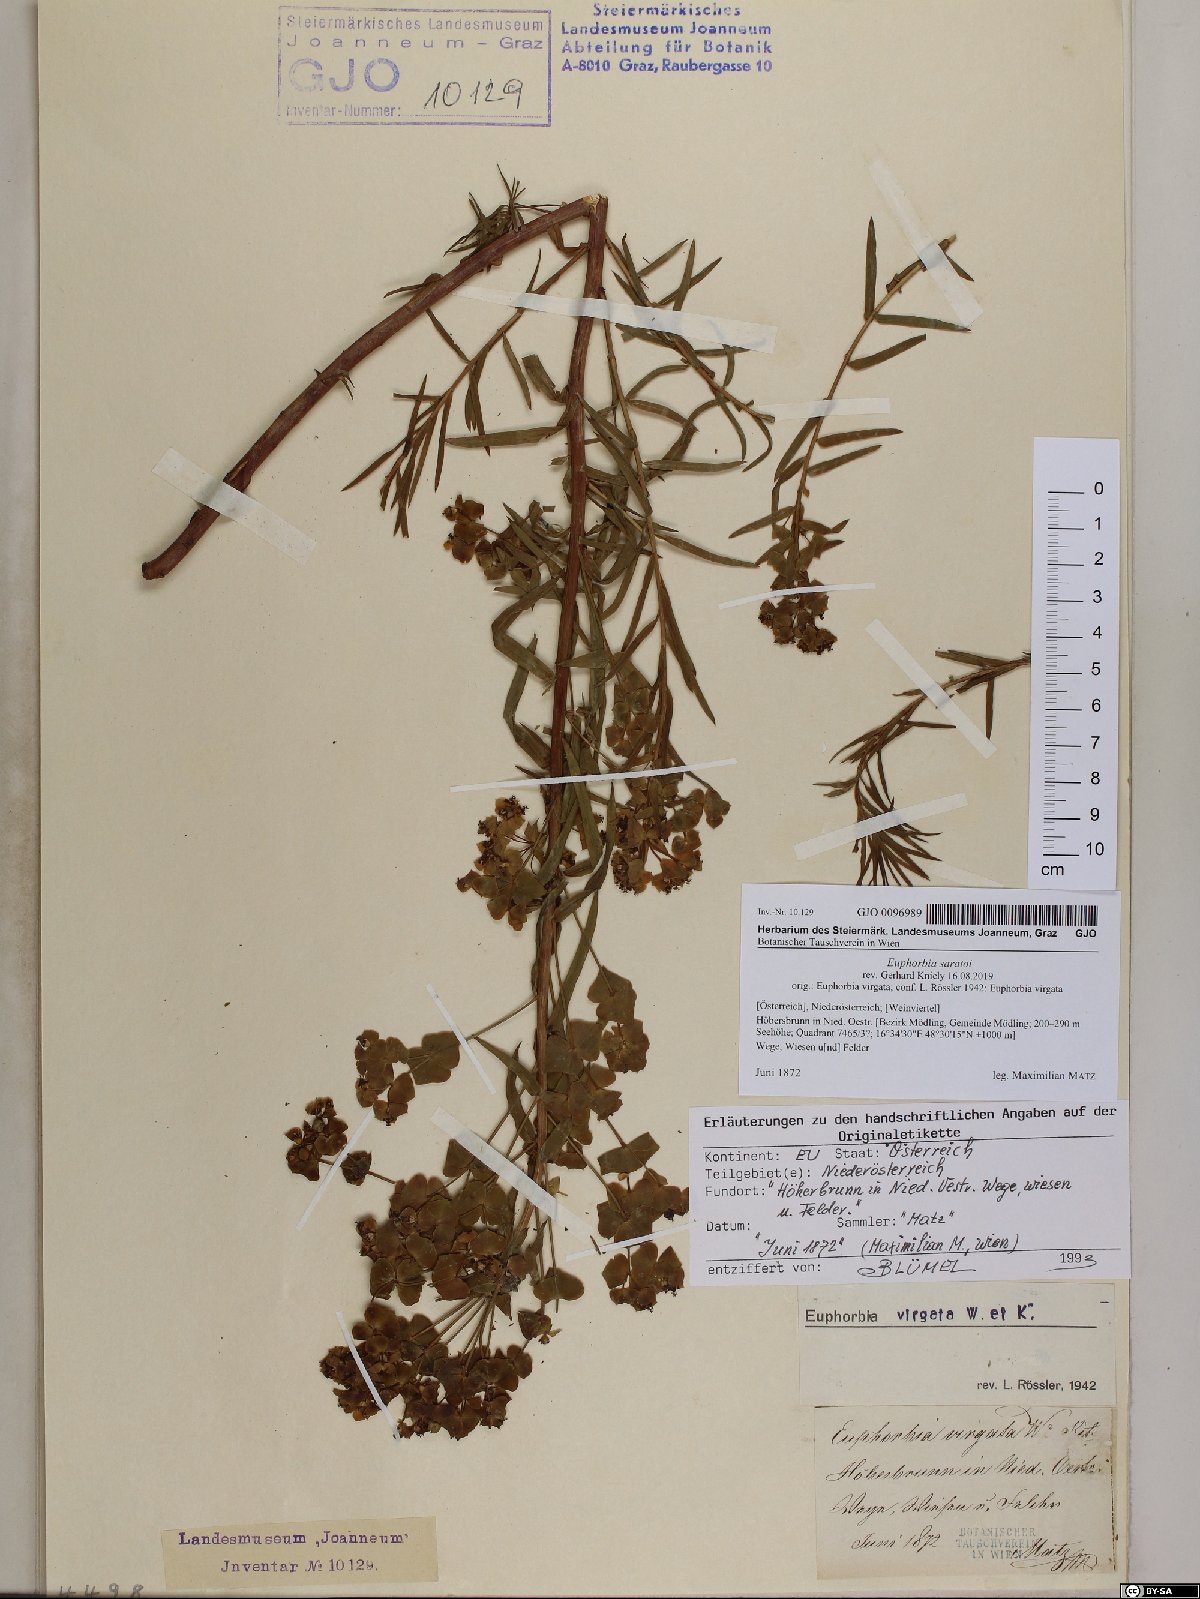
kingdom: Plantae
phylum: Tracheophyta
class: Magnoliopsida
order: Malpighiales
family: Euphorbiaceae
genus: Euphorbia
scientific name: Euphorbia saratoi
